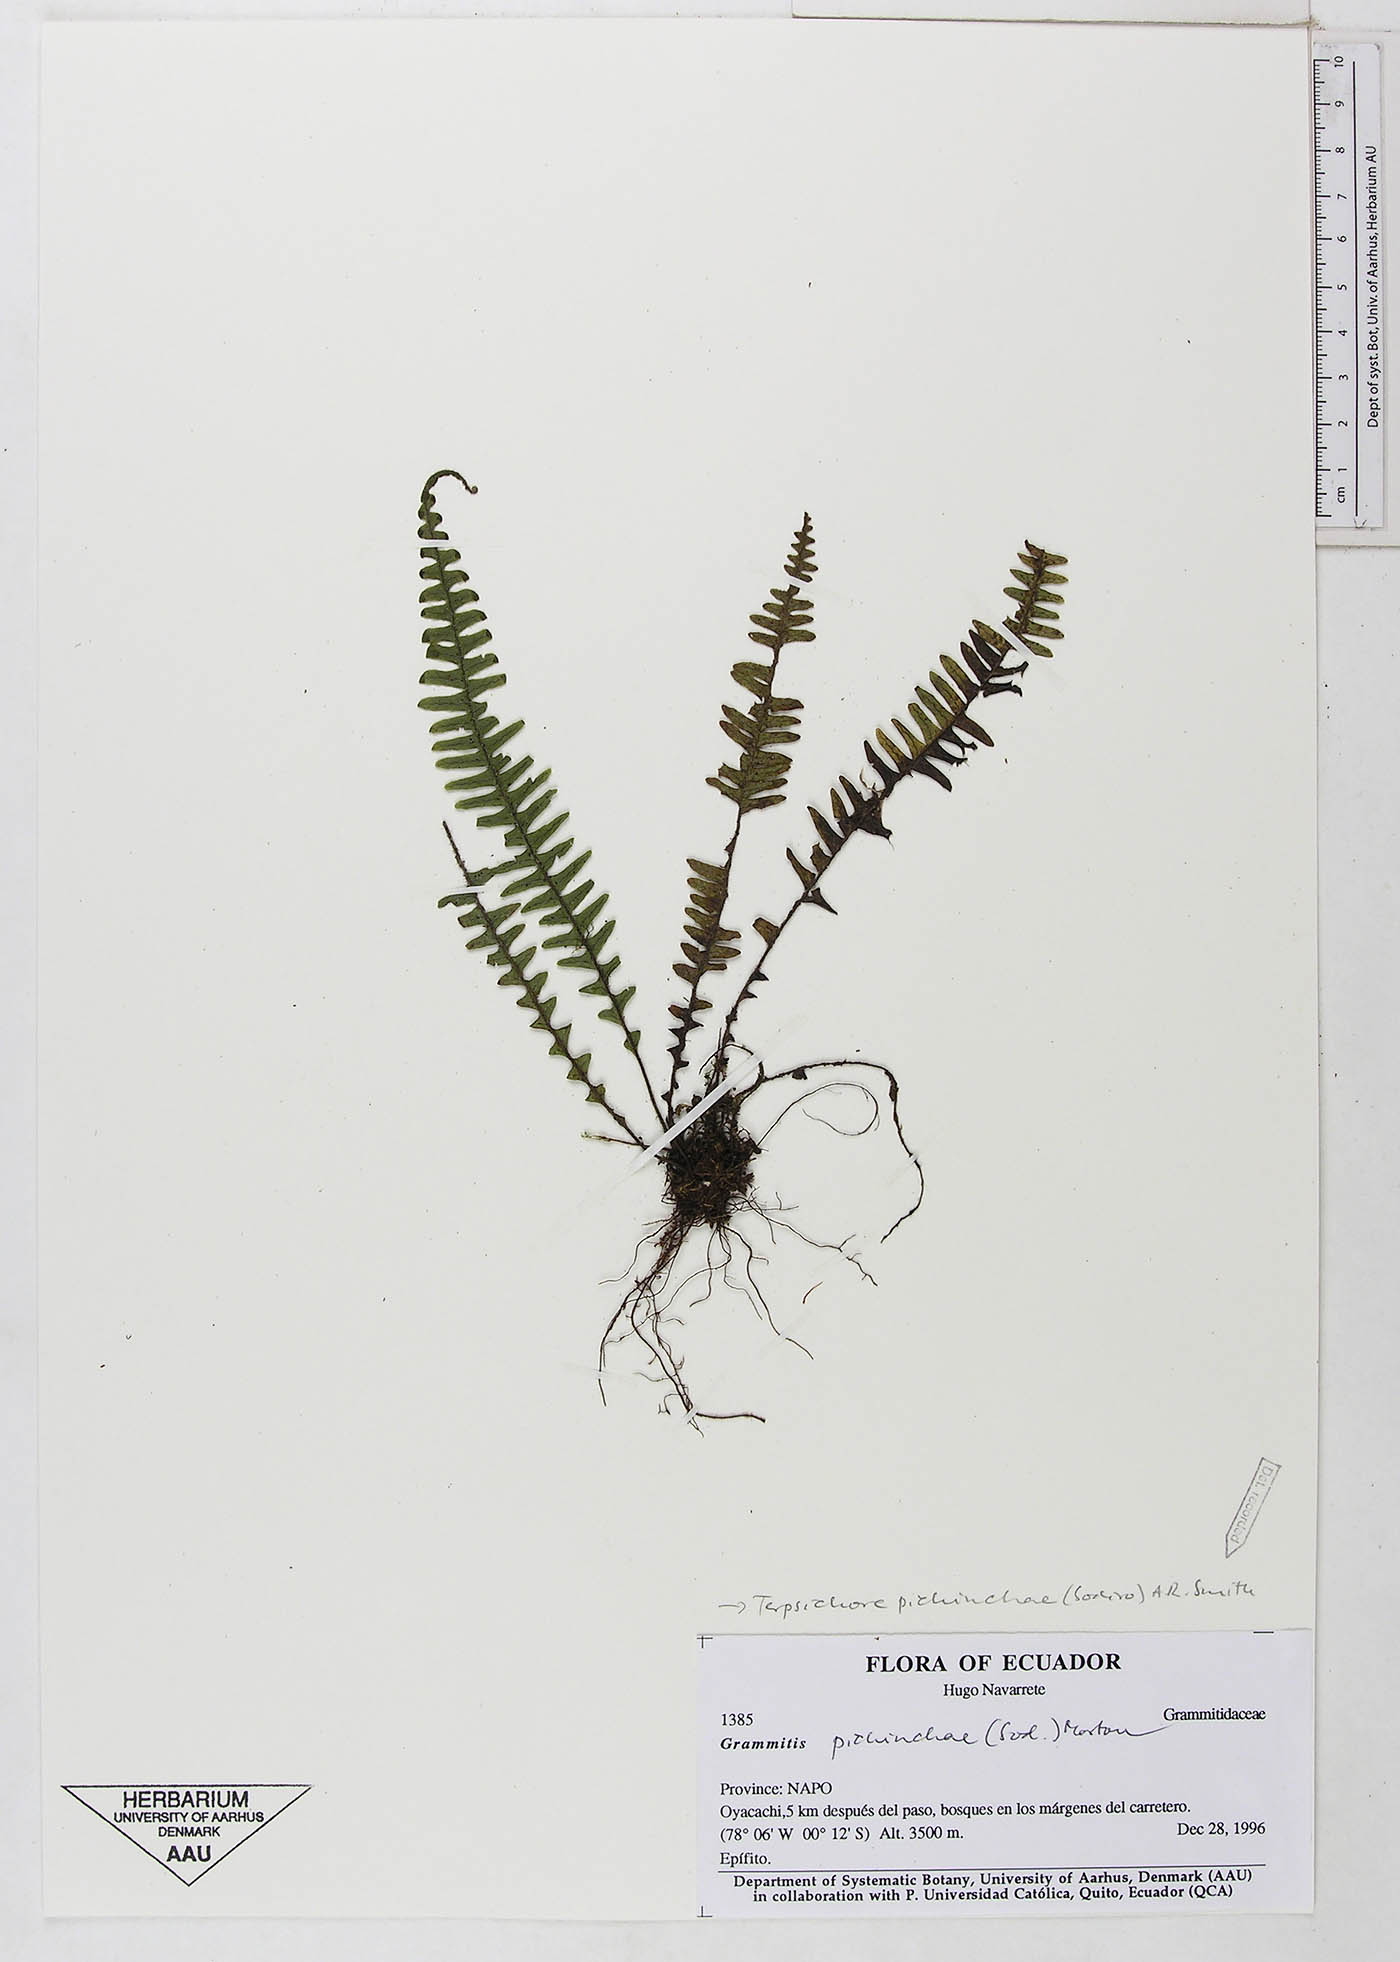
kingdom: Plantae
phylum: Tracheophyta
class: Polypodiopsida
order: Polypodiales
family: Polypodiaceae
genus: Ascogrammitis
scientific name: Ascogrammitis pichinchae
